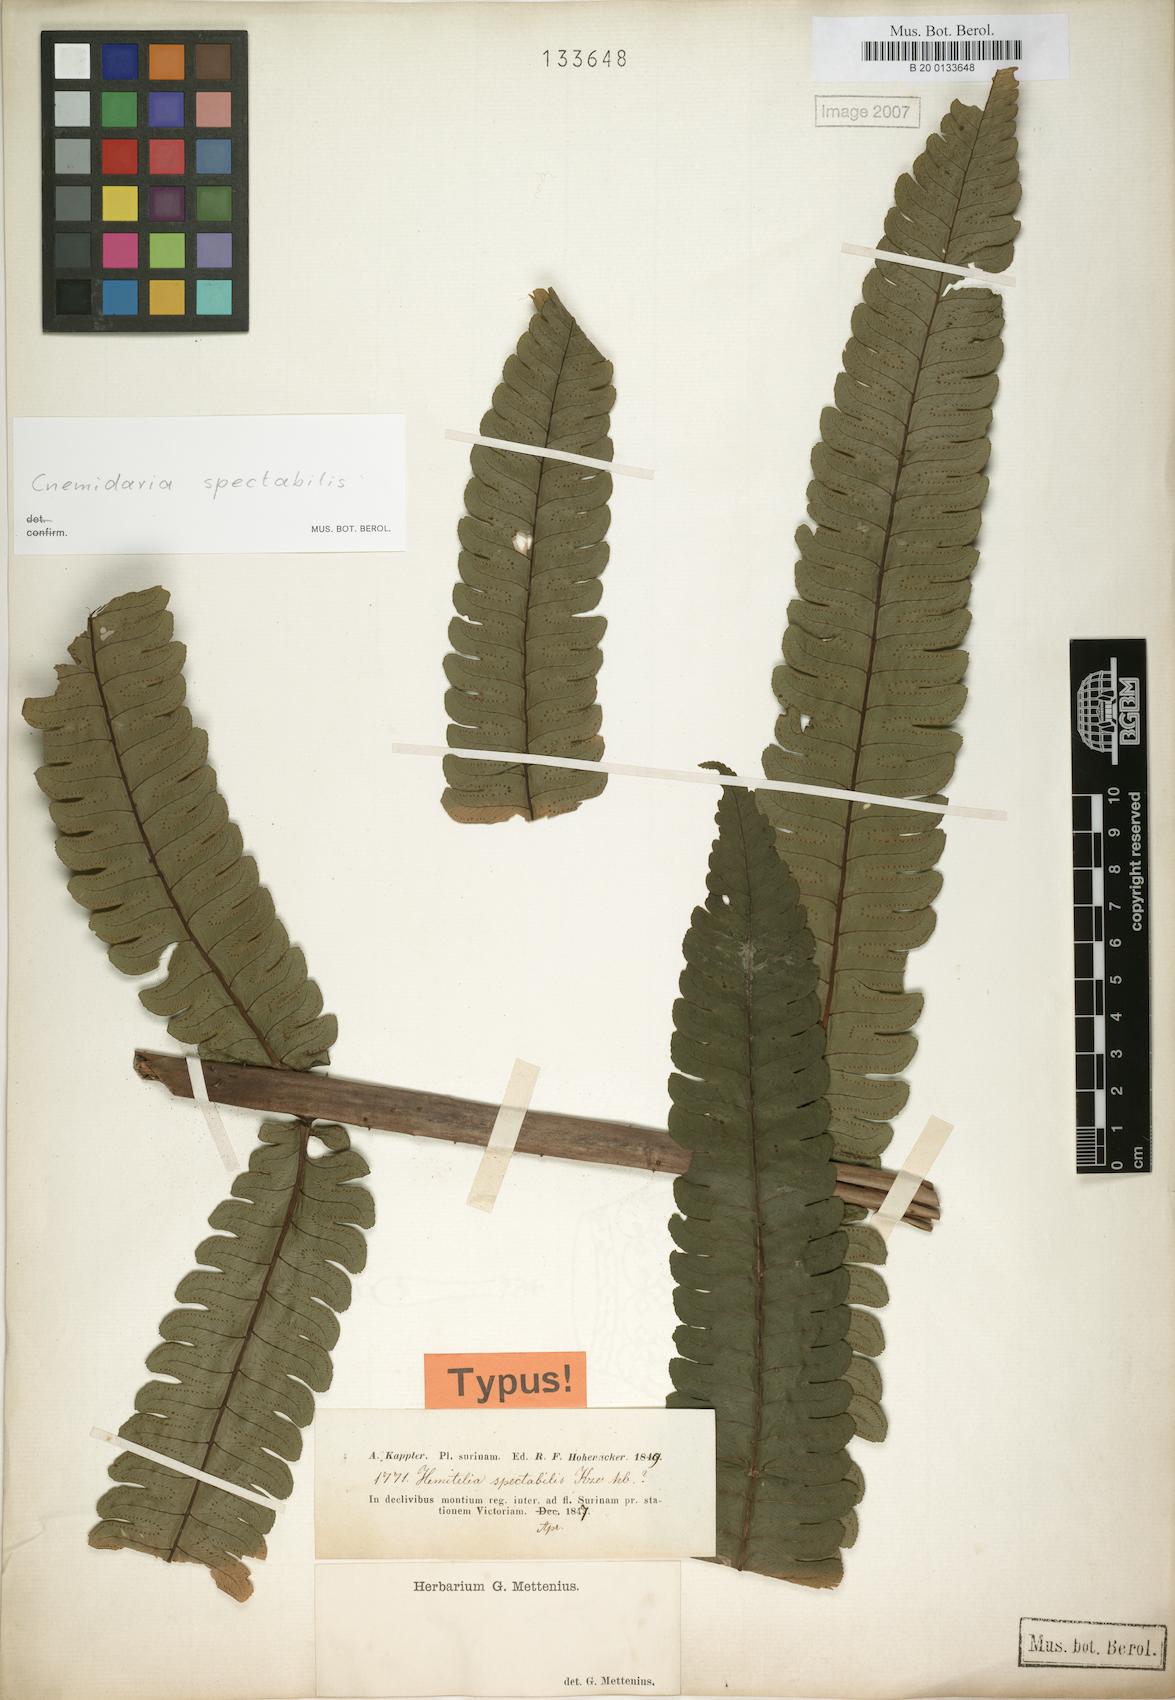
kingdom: Plantae
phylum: Tracheophyta
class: Polypodiopsida
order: Cyatheales
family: Cyatheaceae
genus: Cyathea
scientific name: Cyathea spectabilis
